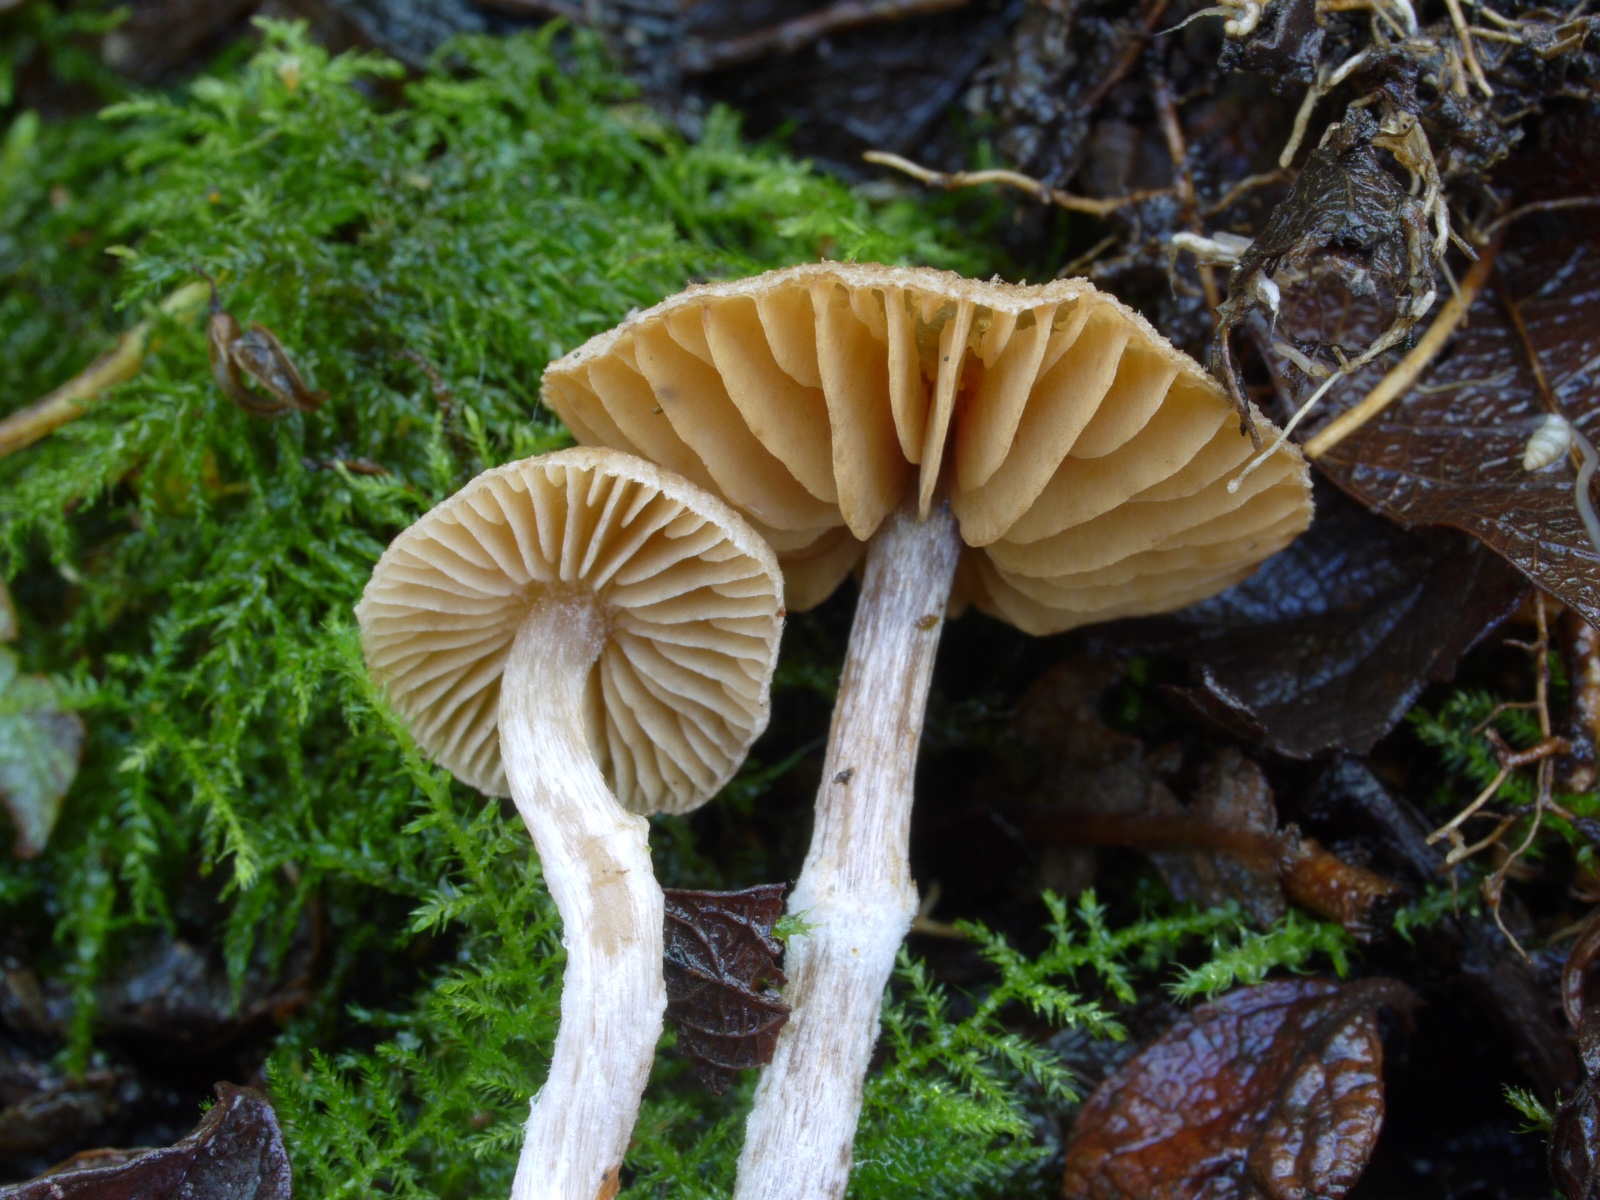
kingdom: Fungi
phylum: Basidiomycota
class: Agaricomycetes
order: Agaricales
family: Cortinariaceae
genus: Cortinarius
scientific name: Cortinarius expallens
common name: bomulds-slørhat
